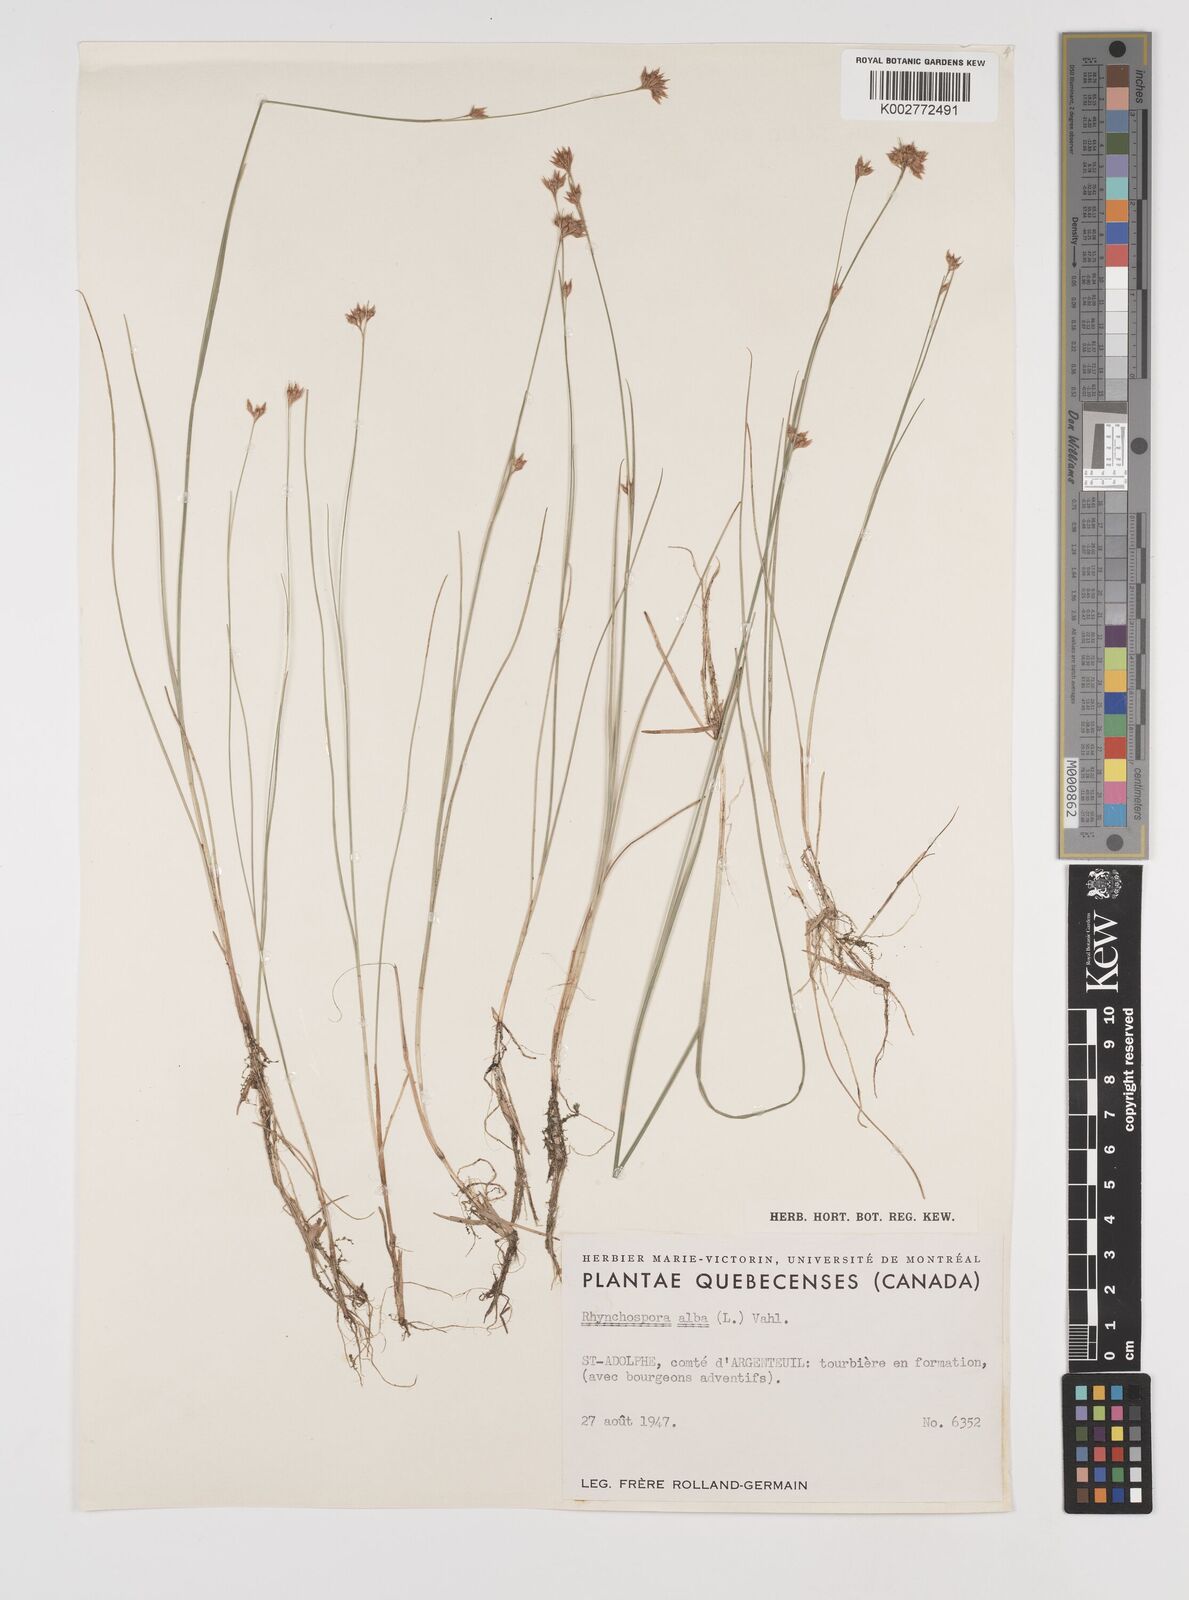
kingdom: Plantae
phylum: Tracheophyta
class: Liliopsida
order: Poales
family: Cyperaceae
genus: Rhynchospora
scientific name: Rhynchospora alba
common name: White beak-sedge
